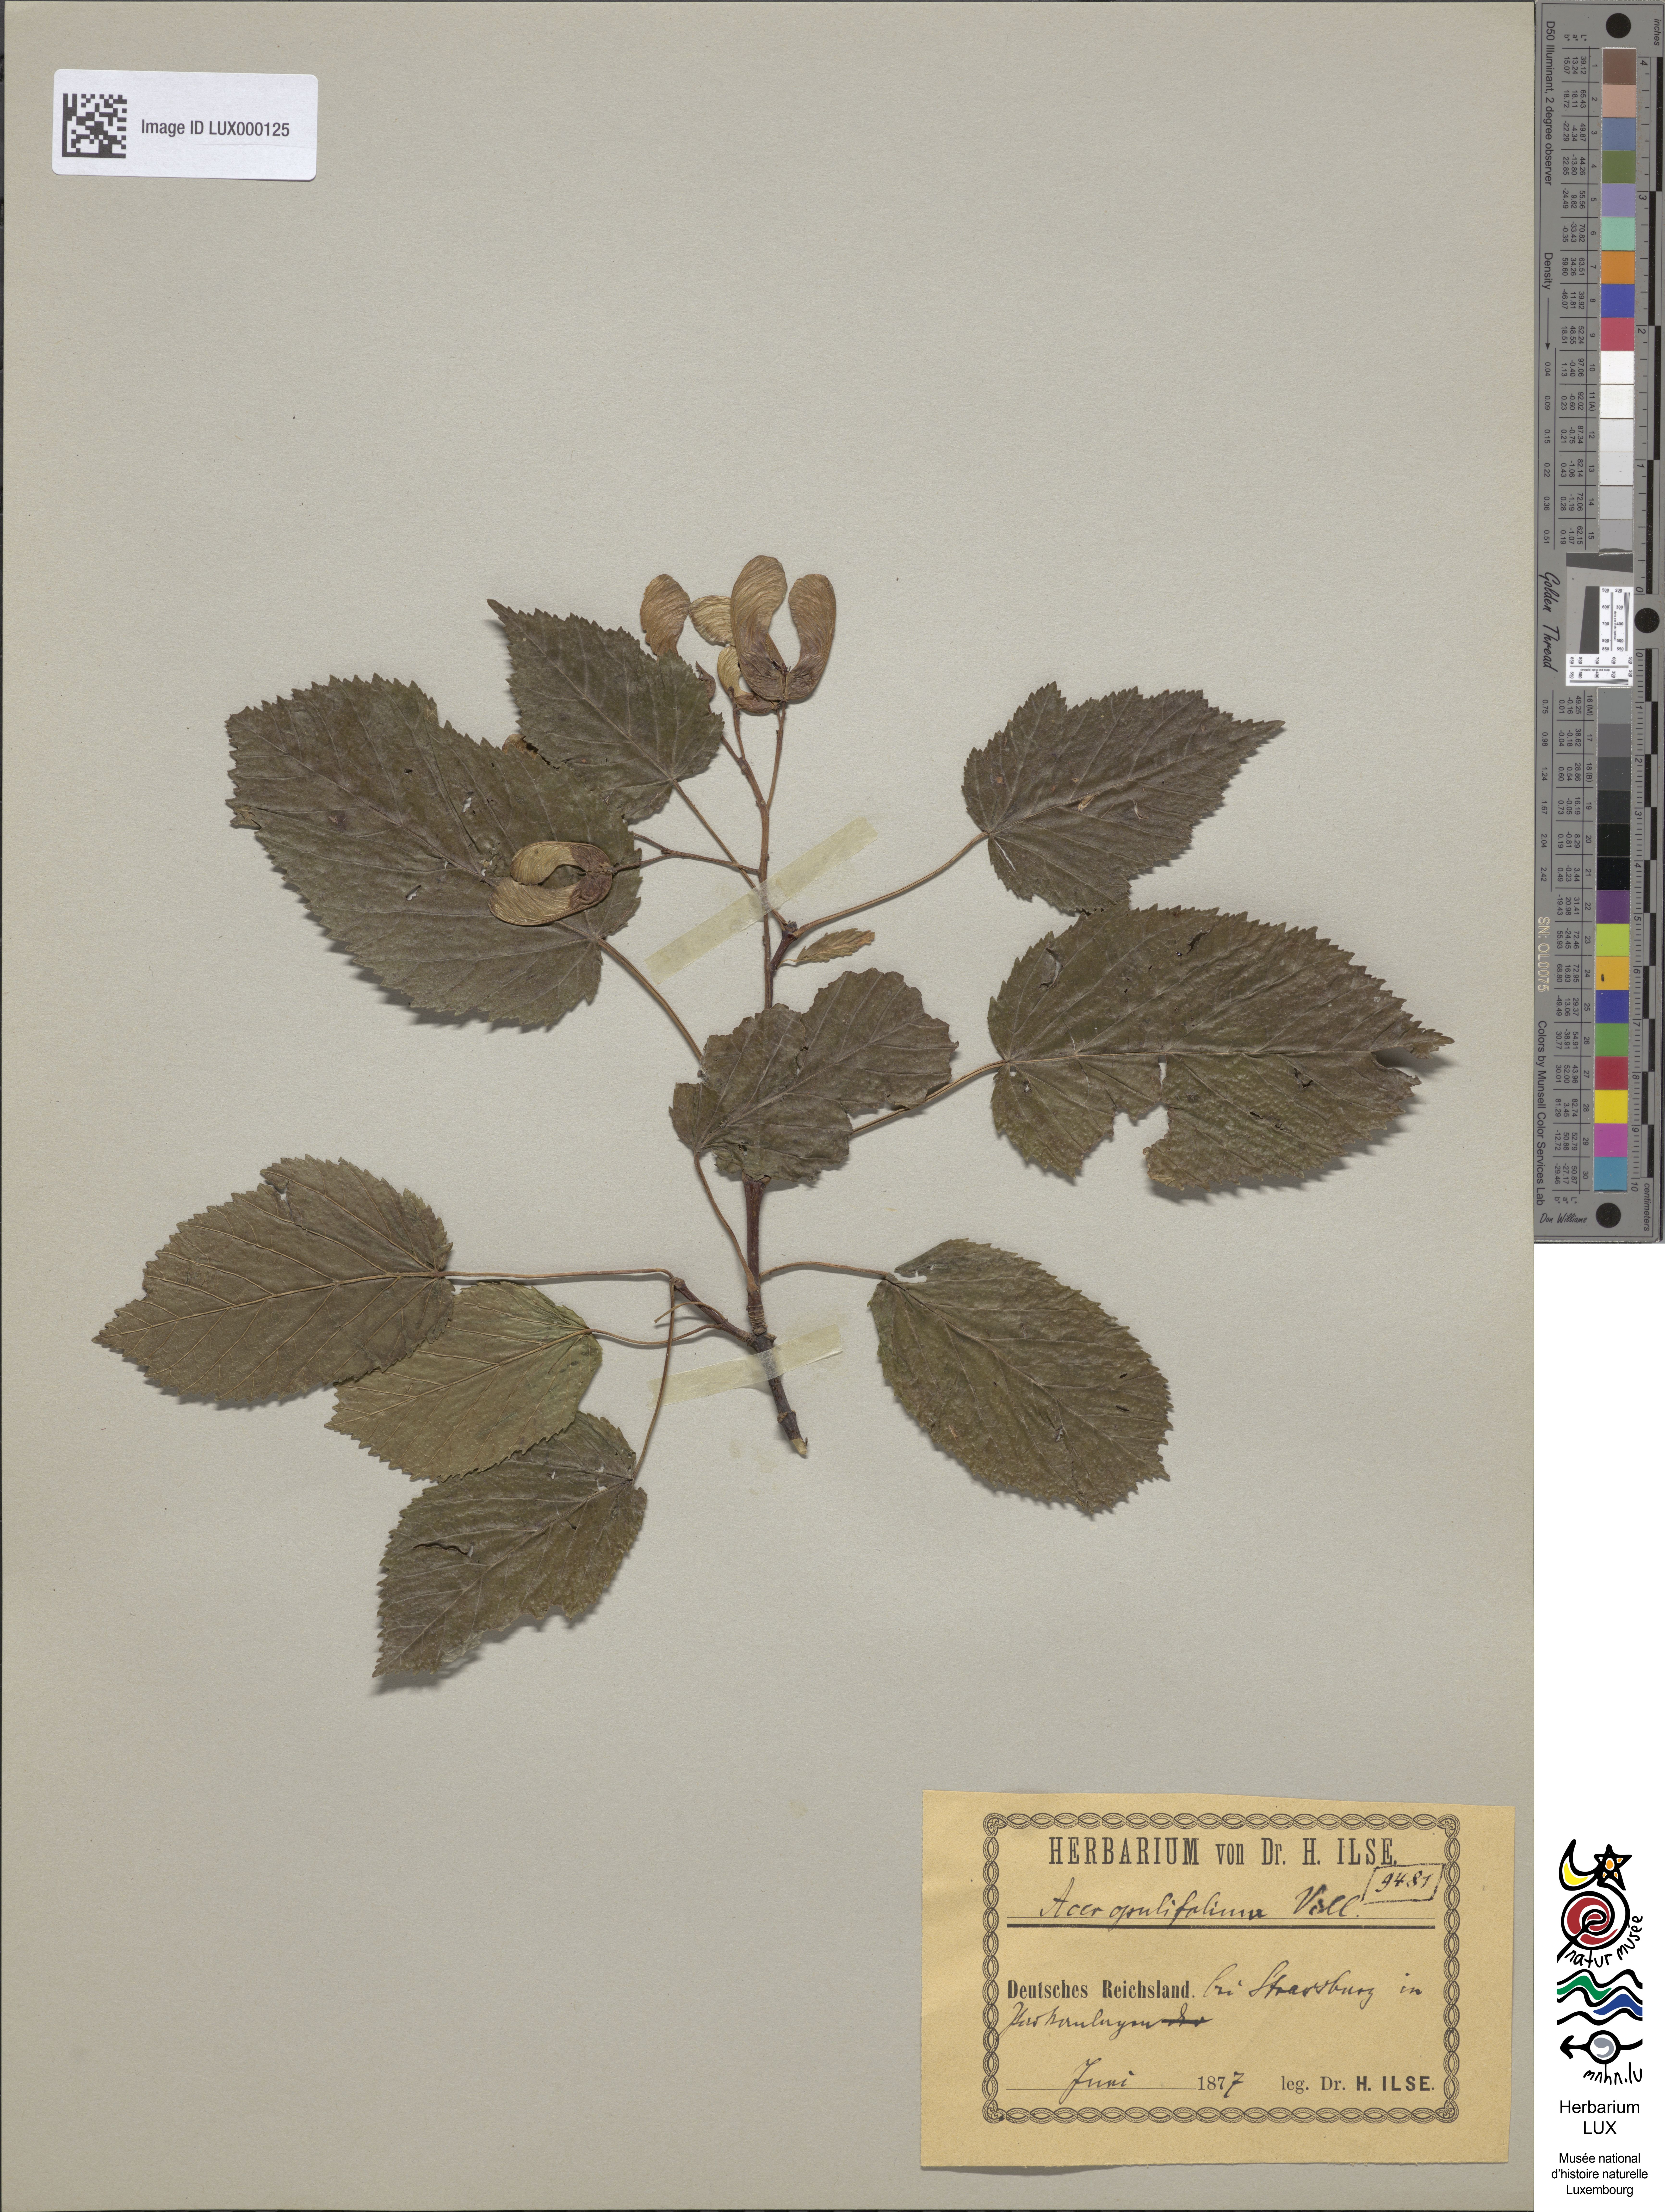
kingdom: Plantae
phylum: Tracheophyta
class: Magnoliopsida
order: Sapindales
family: Sapindaceae
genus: Acer
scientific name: Acer opalus
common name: Italian maple
